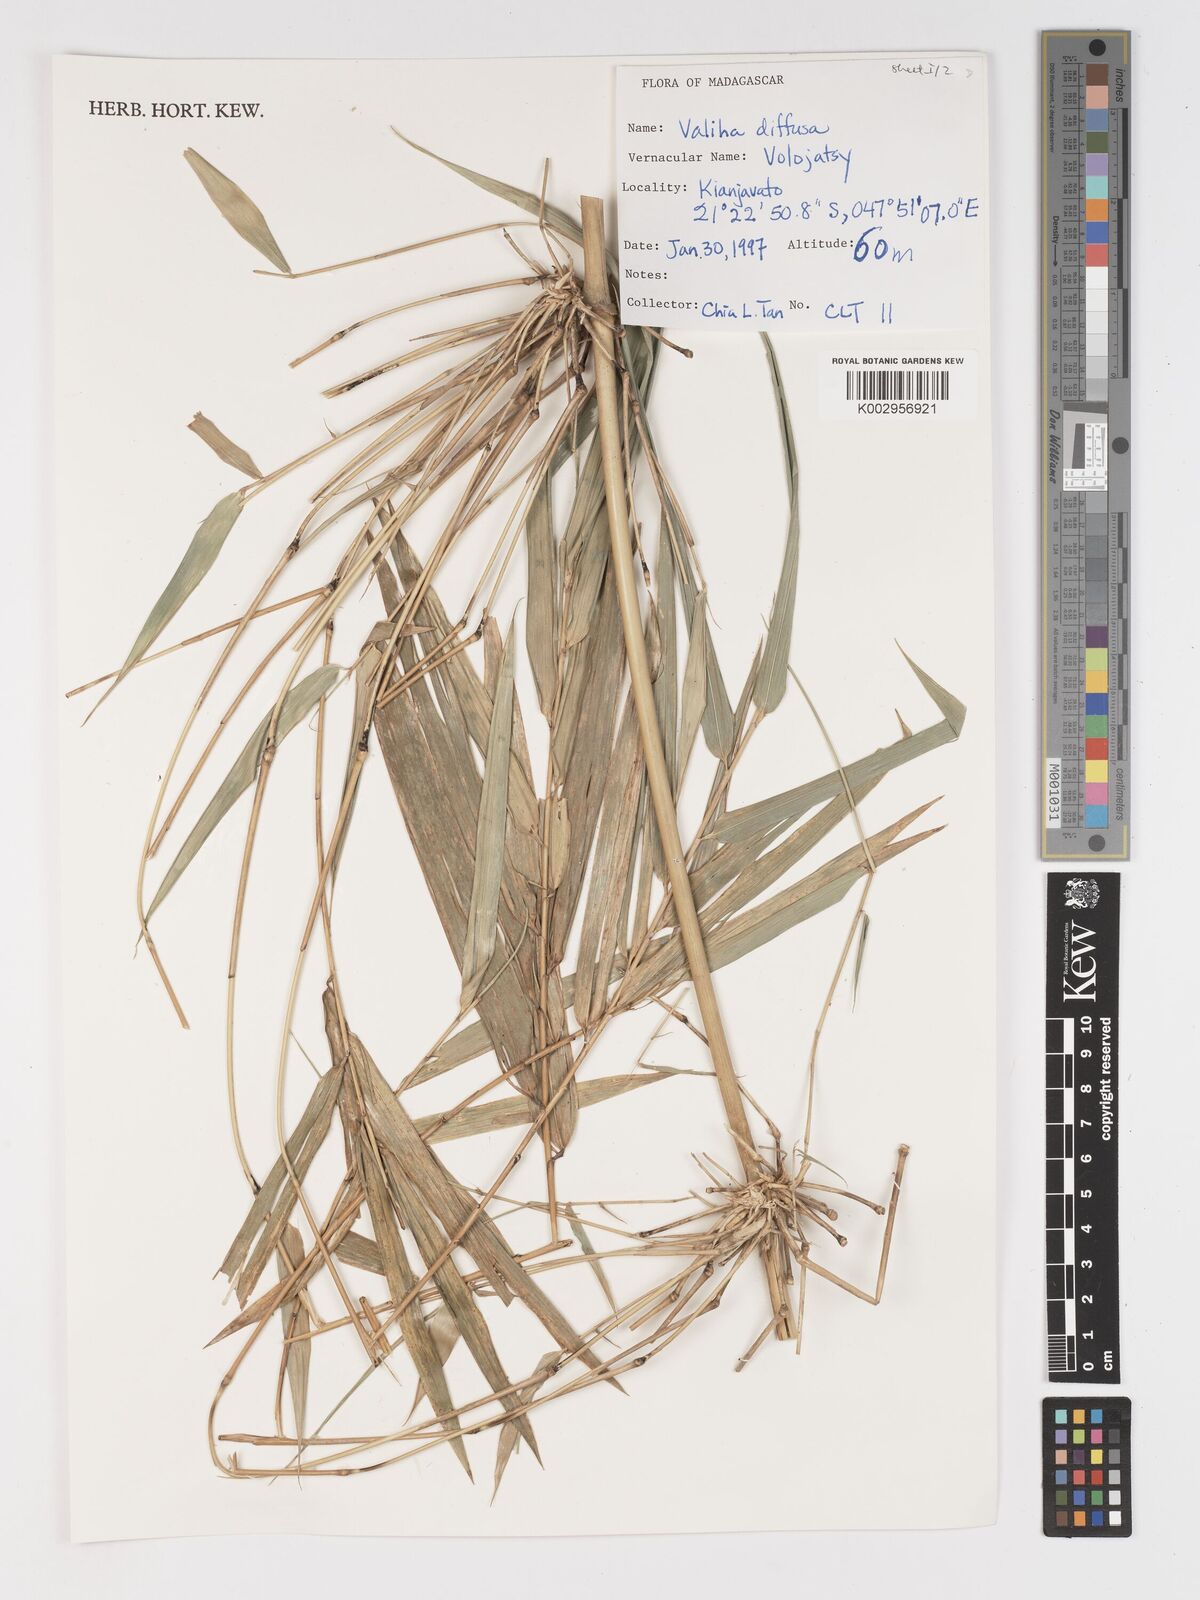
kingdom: Plantae
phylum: Tracheophyta
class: Liliopsida
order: Poales
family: Poaceae
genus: Valiha
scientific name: Valiha diffusa
